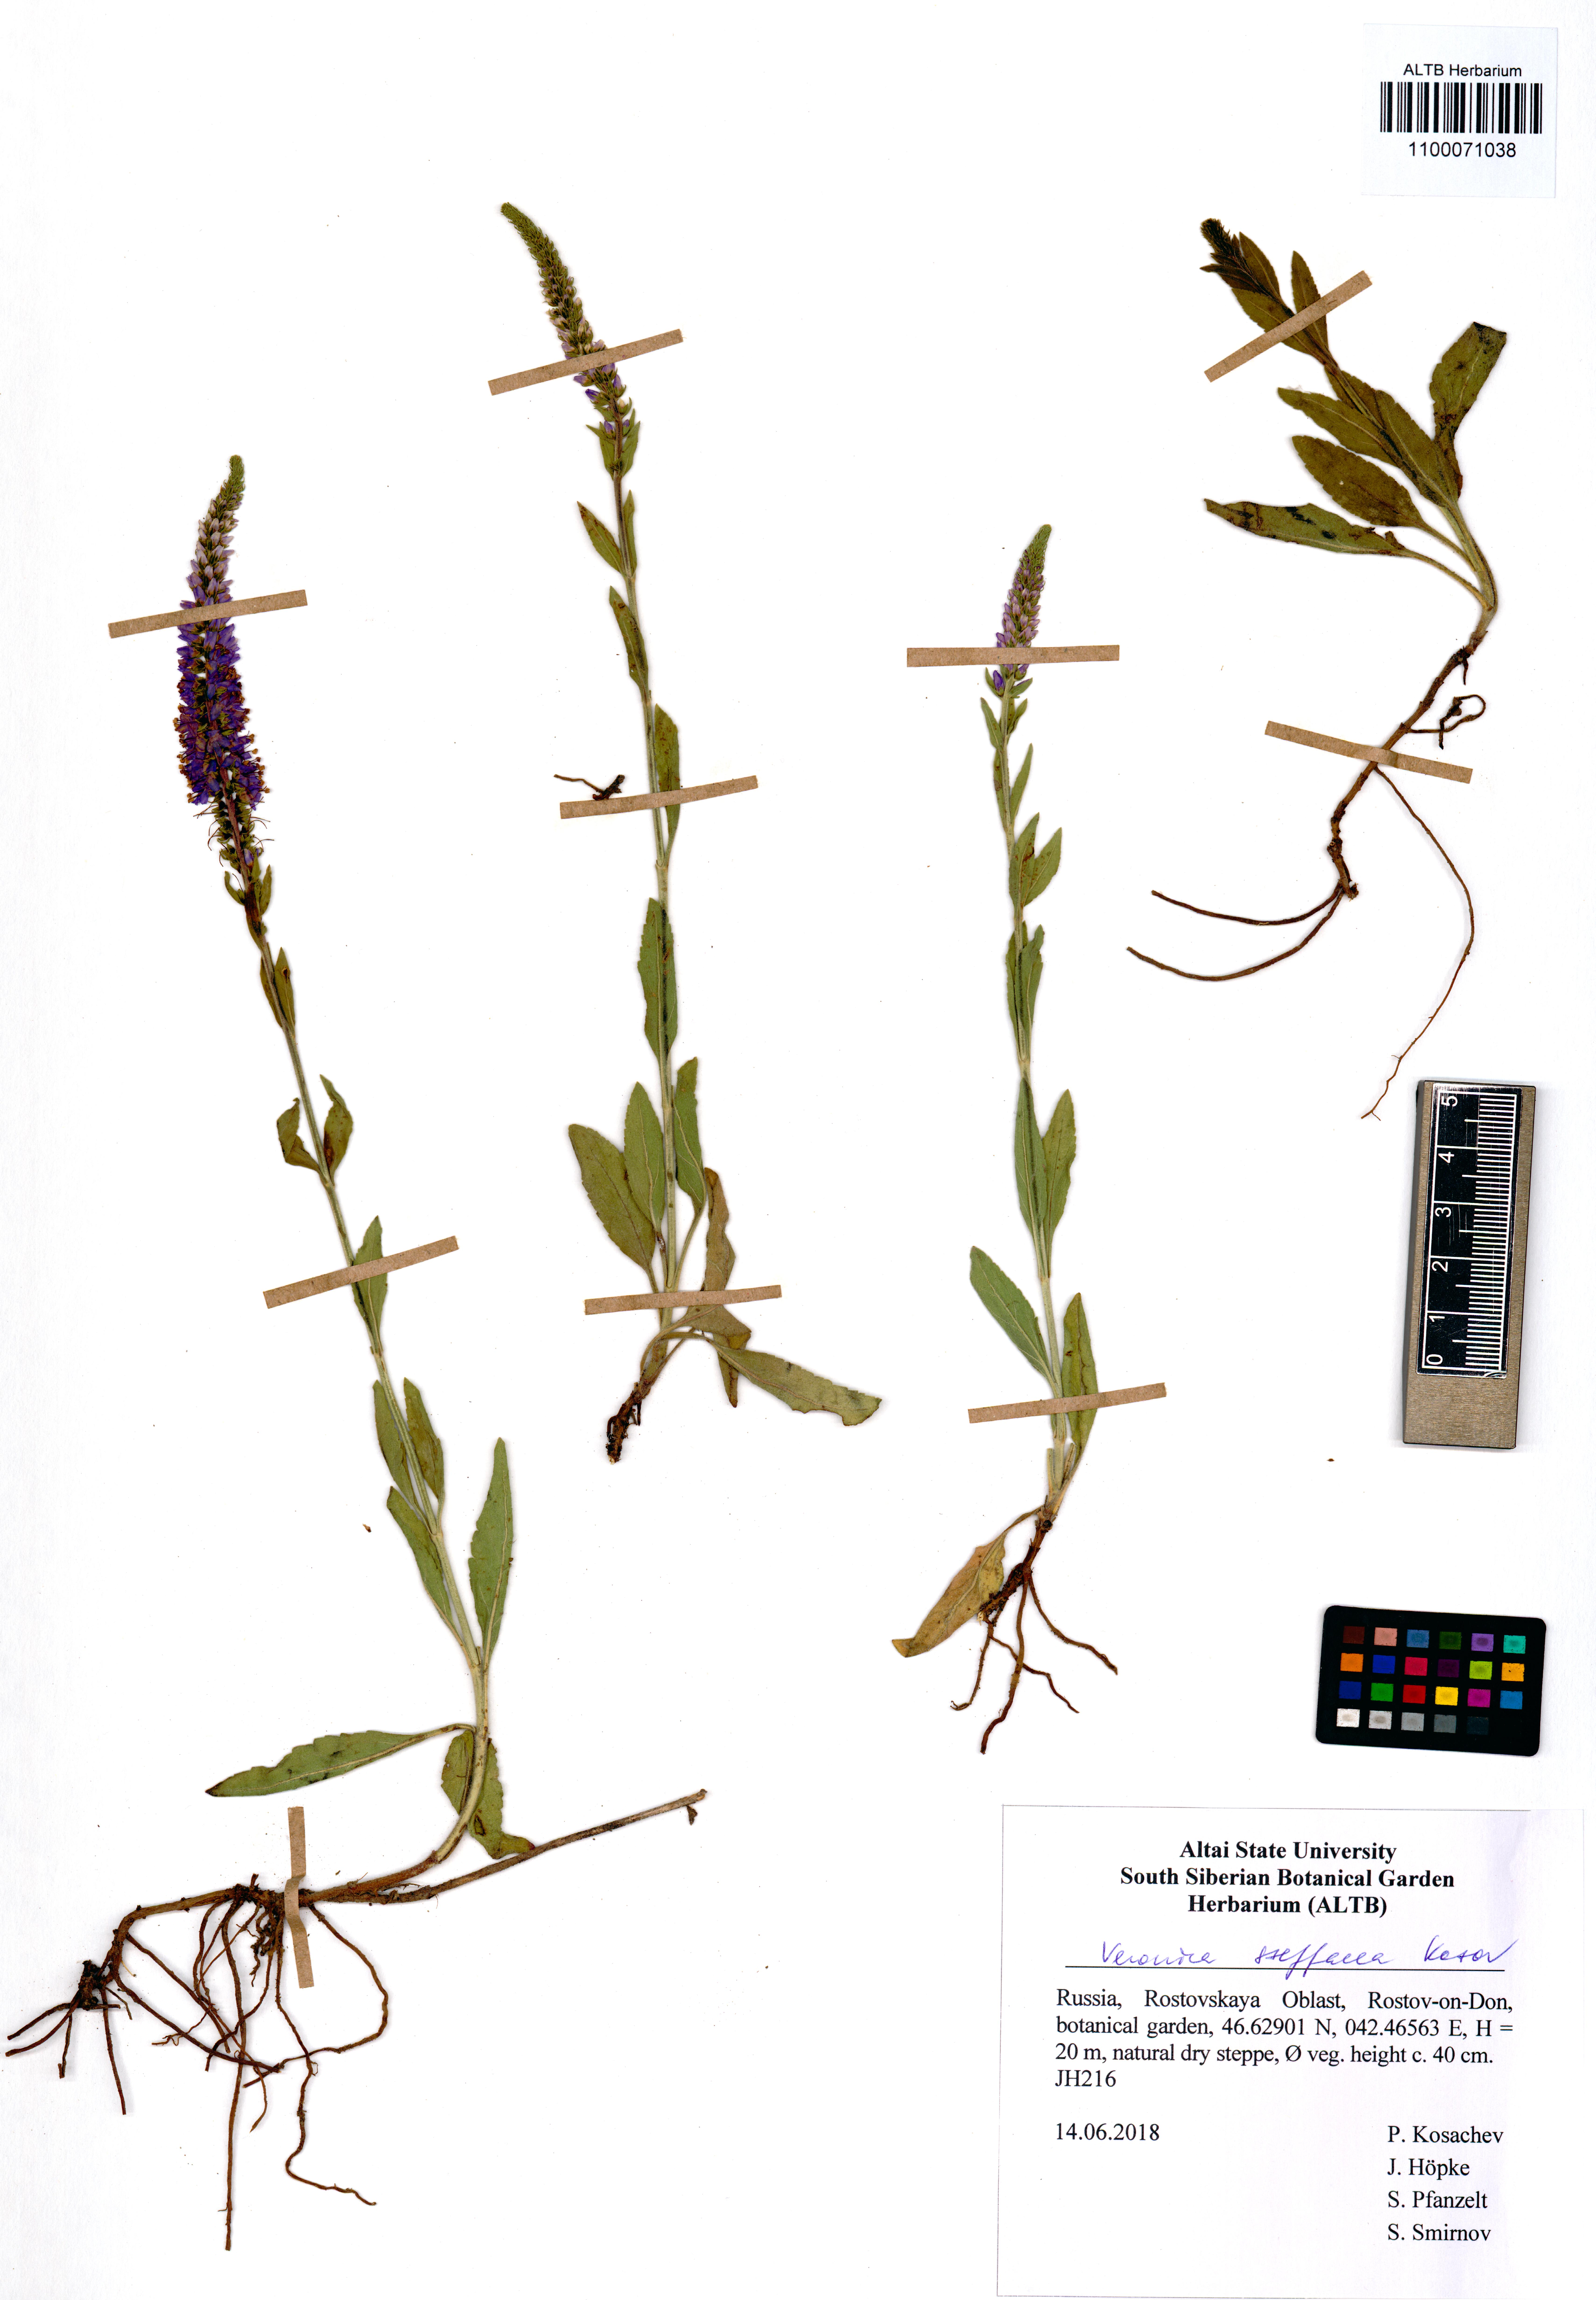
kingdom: Plantae
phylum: Tracheophyta
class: Magnoliopsida
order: Lamiales
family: Plantaginaceae
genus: Veronica
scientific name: Veronica barrelieri
